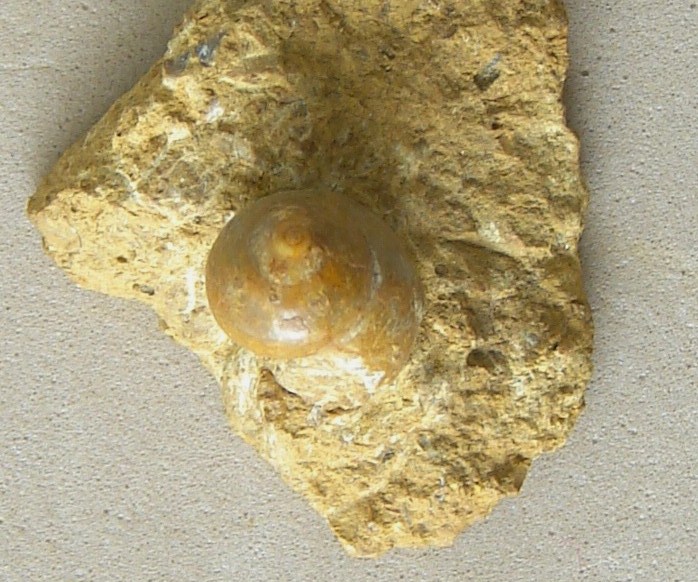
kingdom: Animalia
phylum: Mollusca
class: Gastropoda
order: Trochida
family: Ataphridae
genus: Ataphrus
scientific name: Ataphrus Trochus acmon
